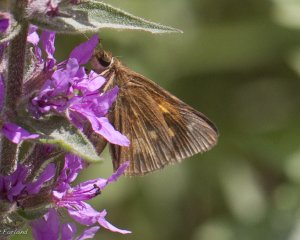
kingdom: Animalia
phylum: Arthropoda
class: Insecta
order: Lepidoptera
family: Hesperiidae
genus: Poanes
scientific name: Poanes viator
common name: Broad-winged Skipper
